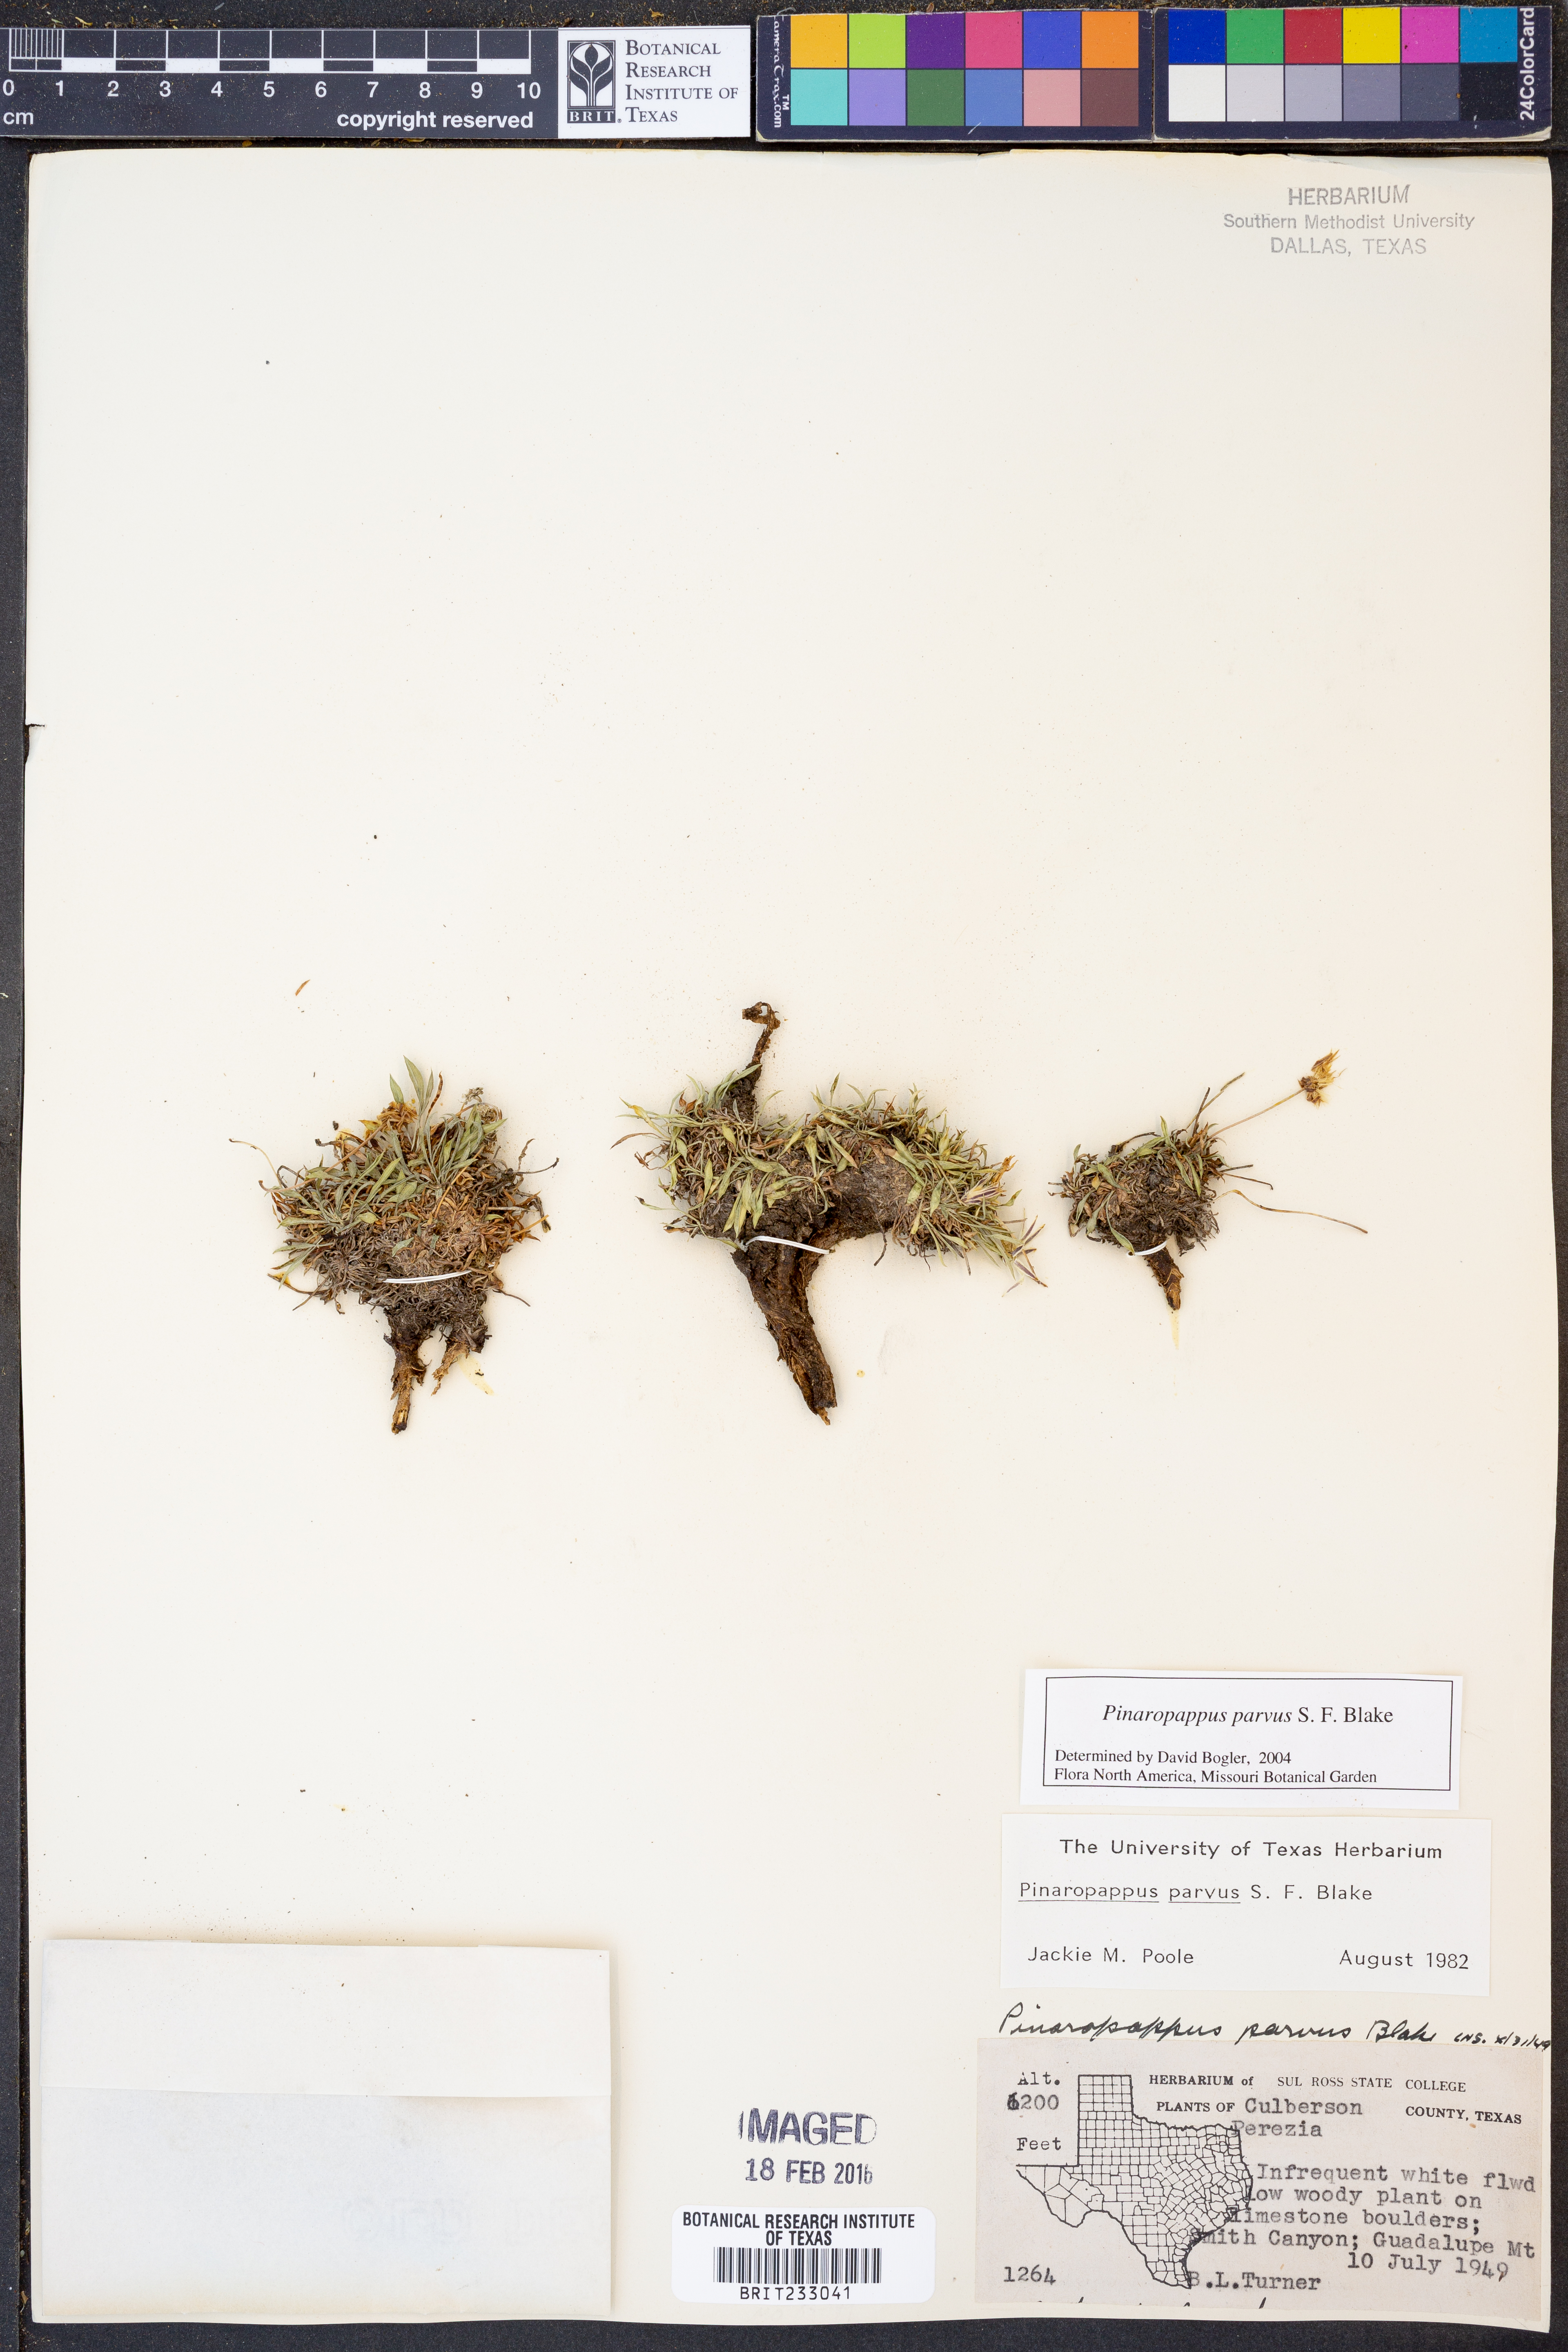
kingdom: Plantae
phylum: Tracheophyta
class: Magnoliopsida
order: Asterales
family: Asteraceae
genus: Pinaropappus
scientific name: Pinaropappus parvus
